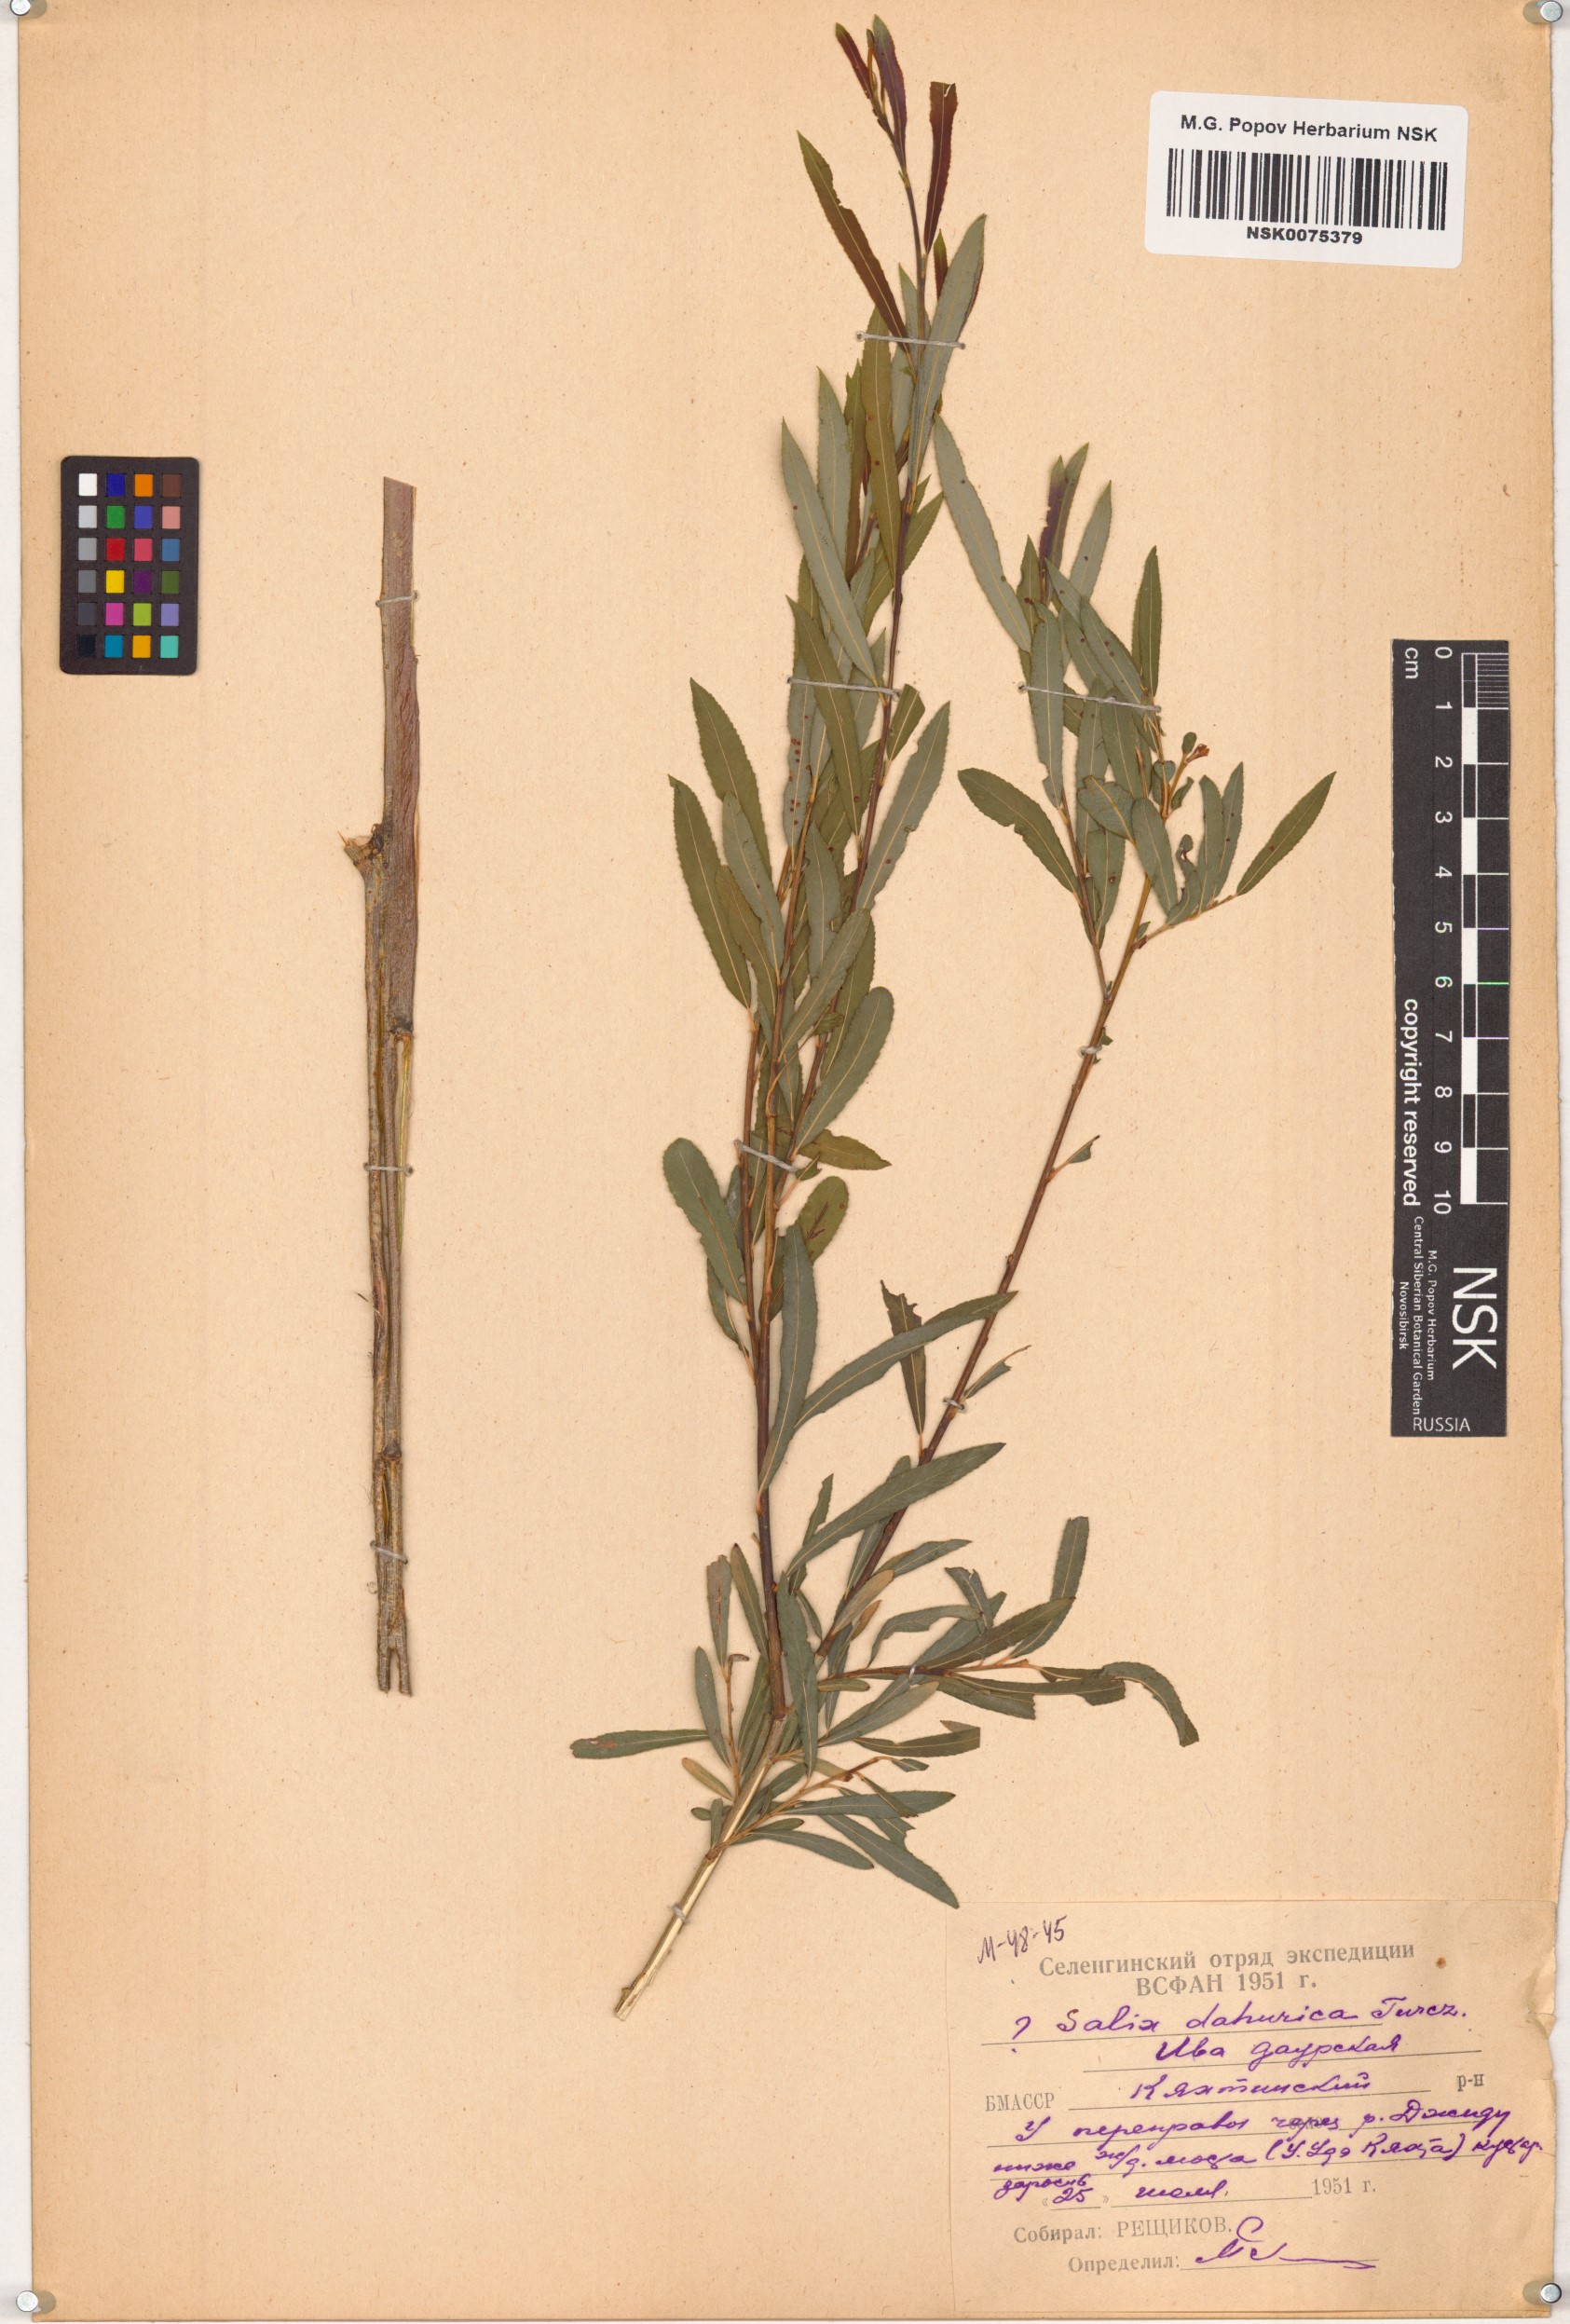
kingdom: Plantae
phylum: Tracheophyta
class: Magnoliopsida
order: Malpighiales
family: Salicaceae
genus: Salix
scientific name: Salix
